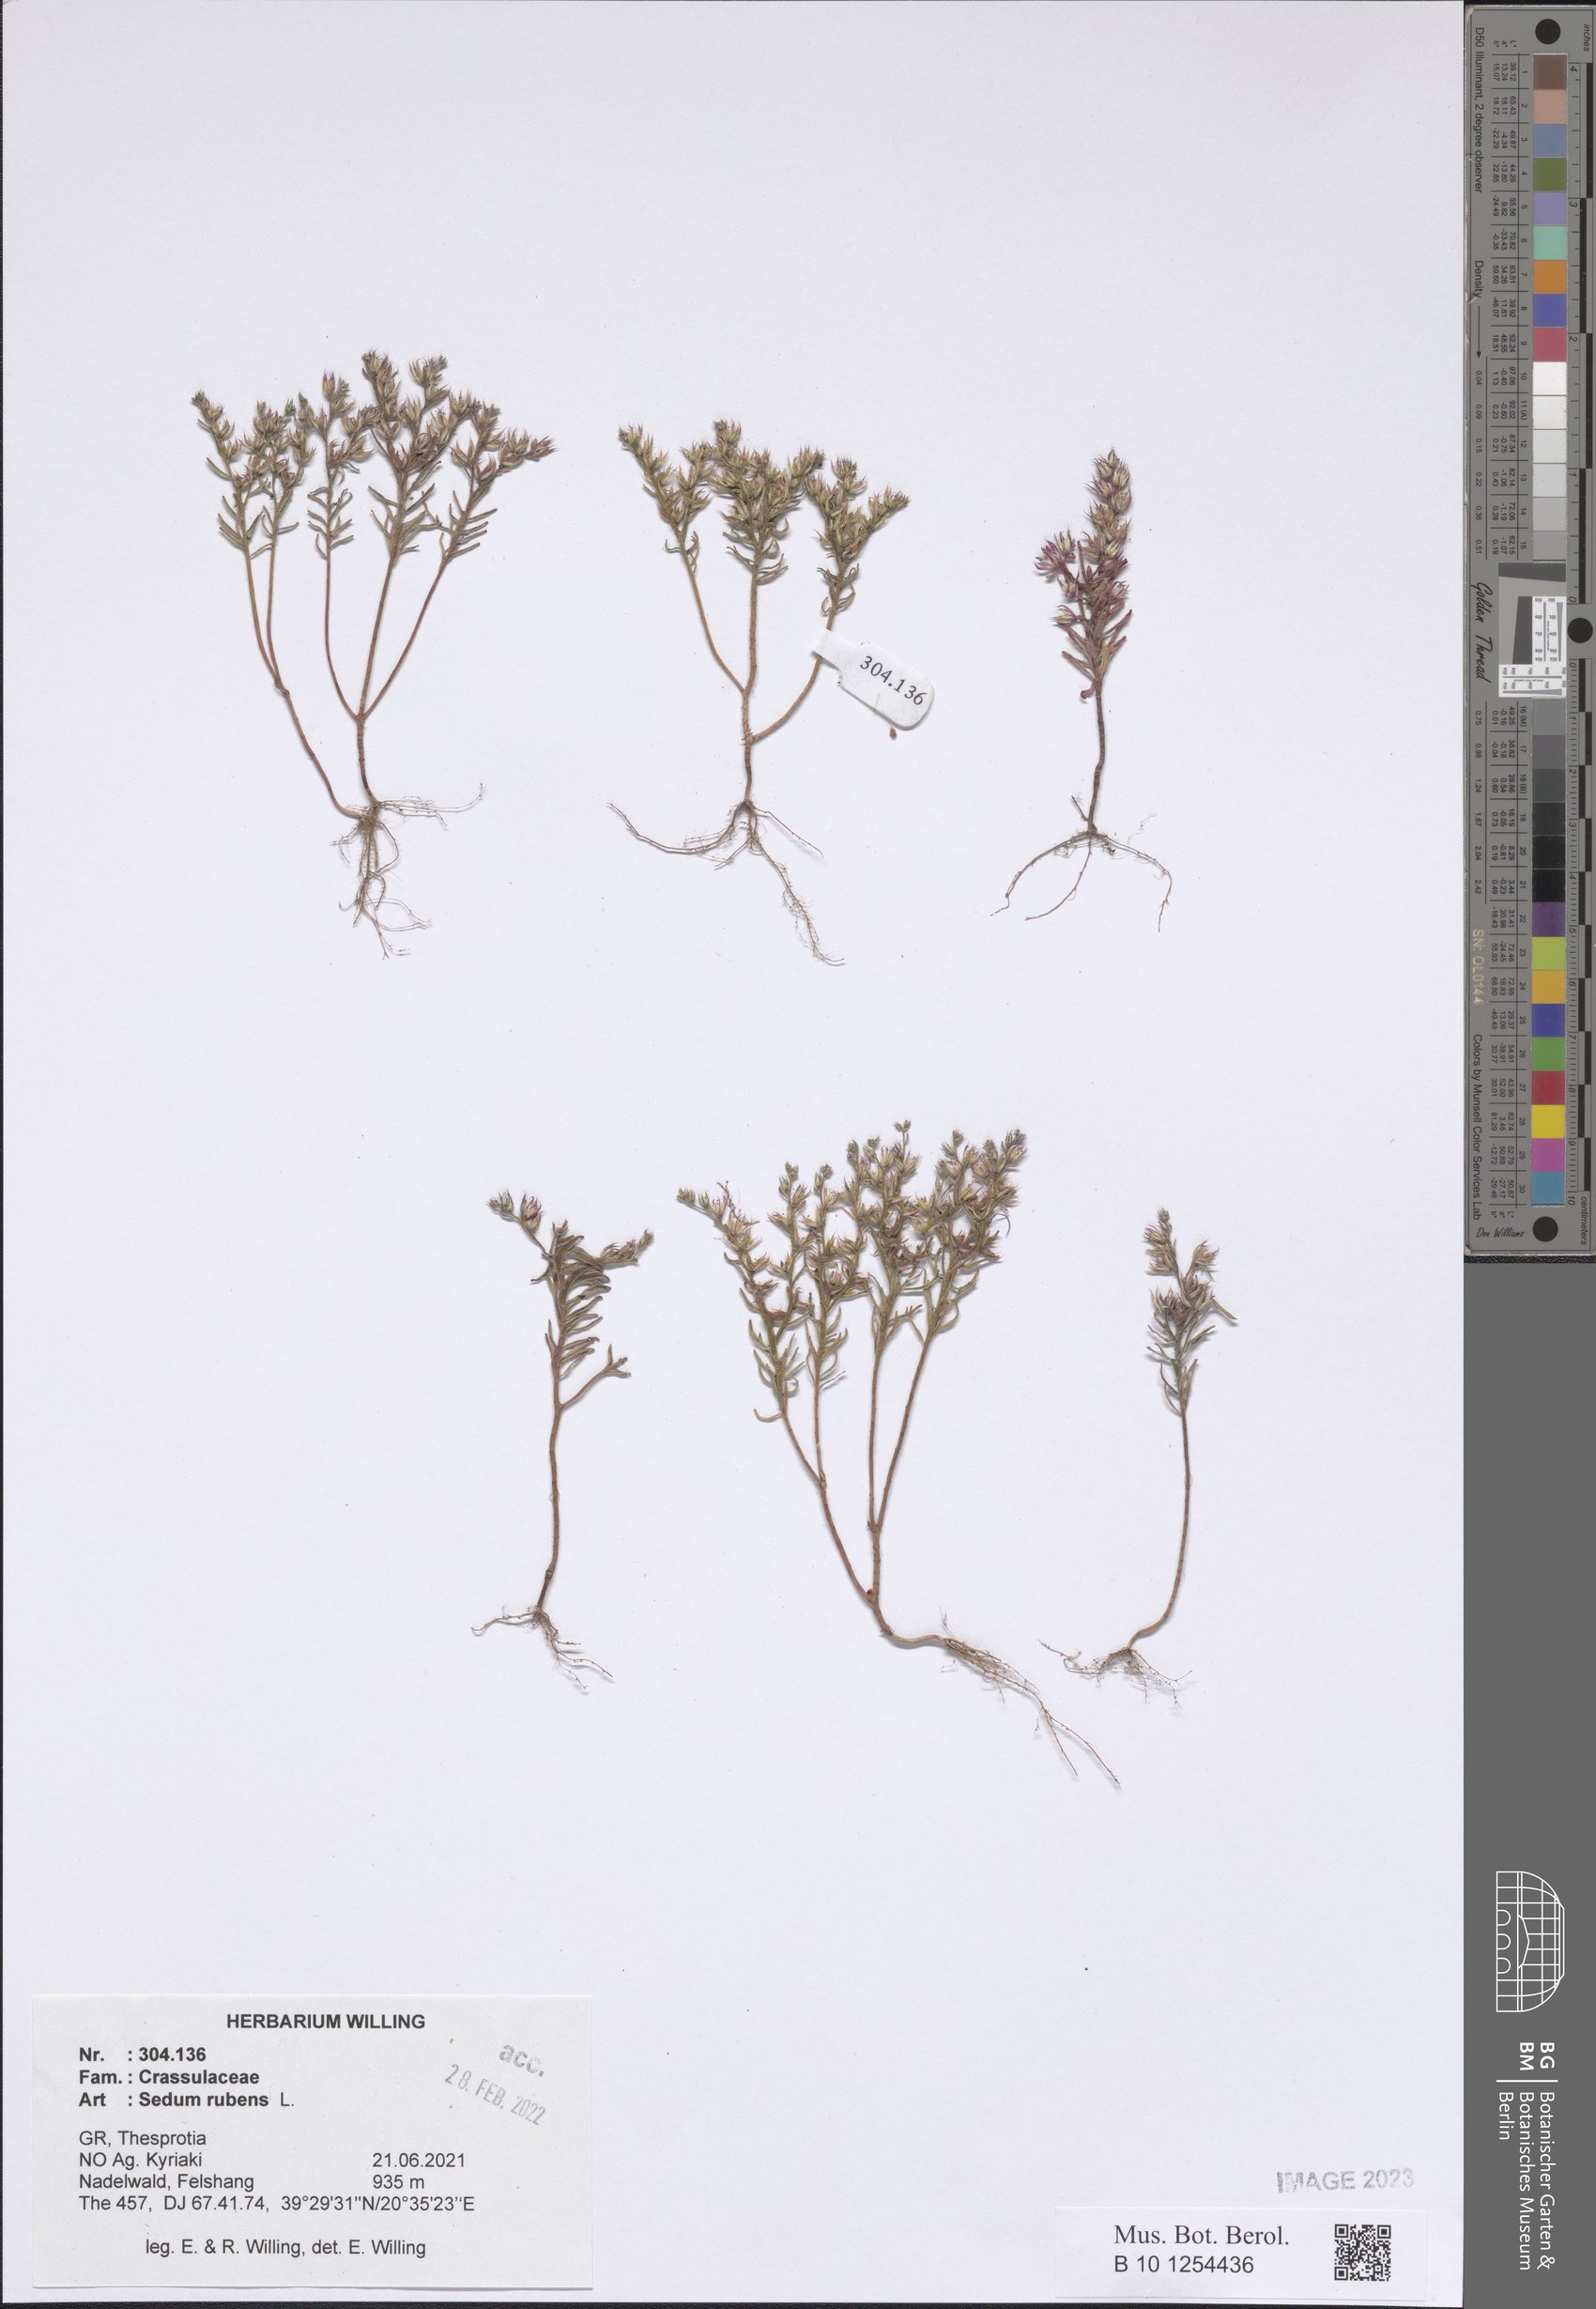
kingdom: Plantae
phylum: Tracheophyta
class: Magnoliopsida
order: Saxifragales
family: Crassulaceae
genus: Sedum
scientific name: Sedum rubens
